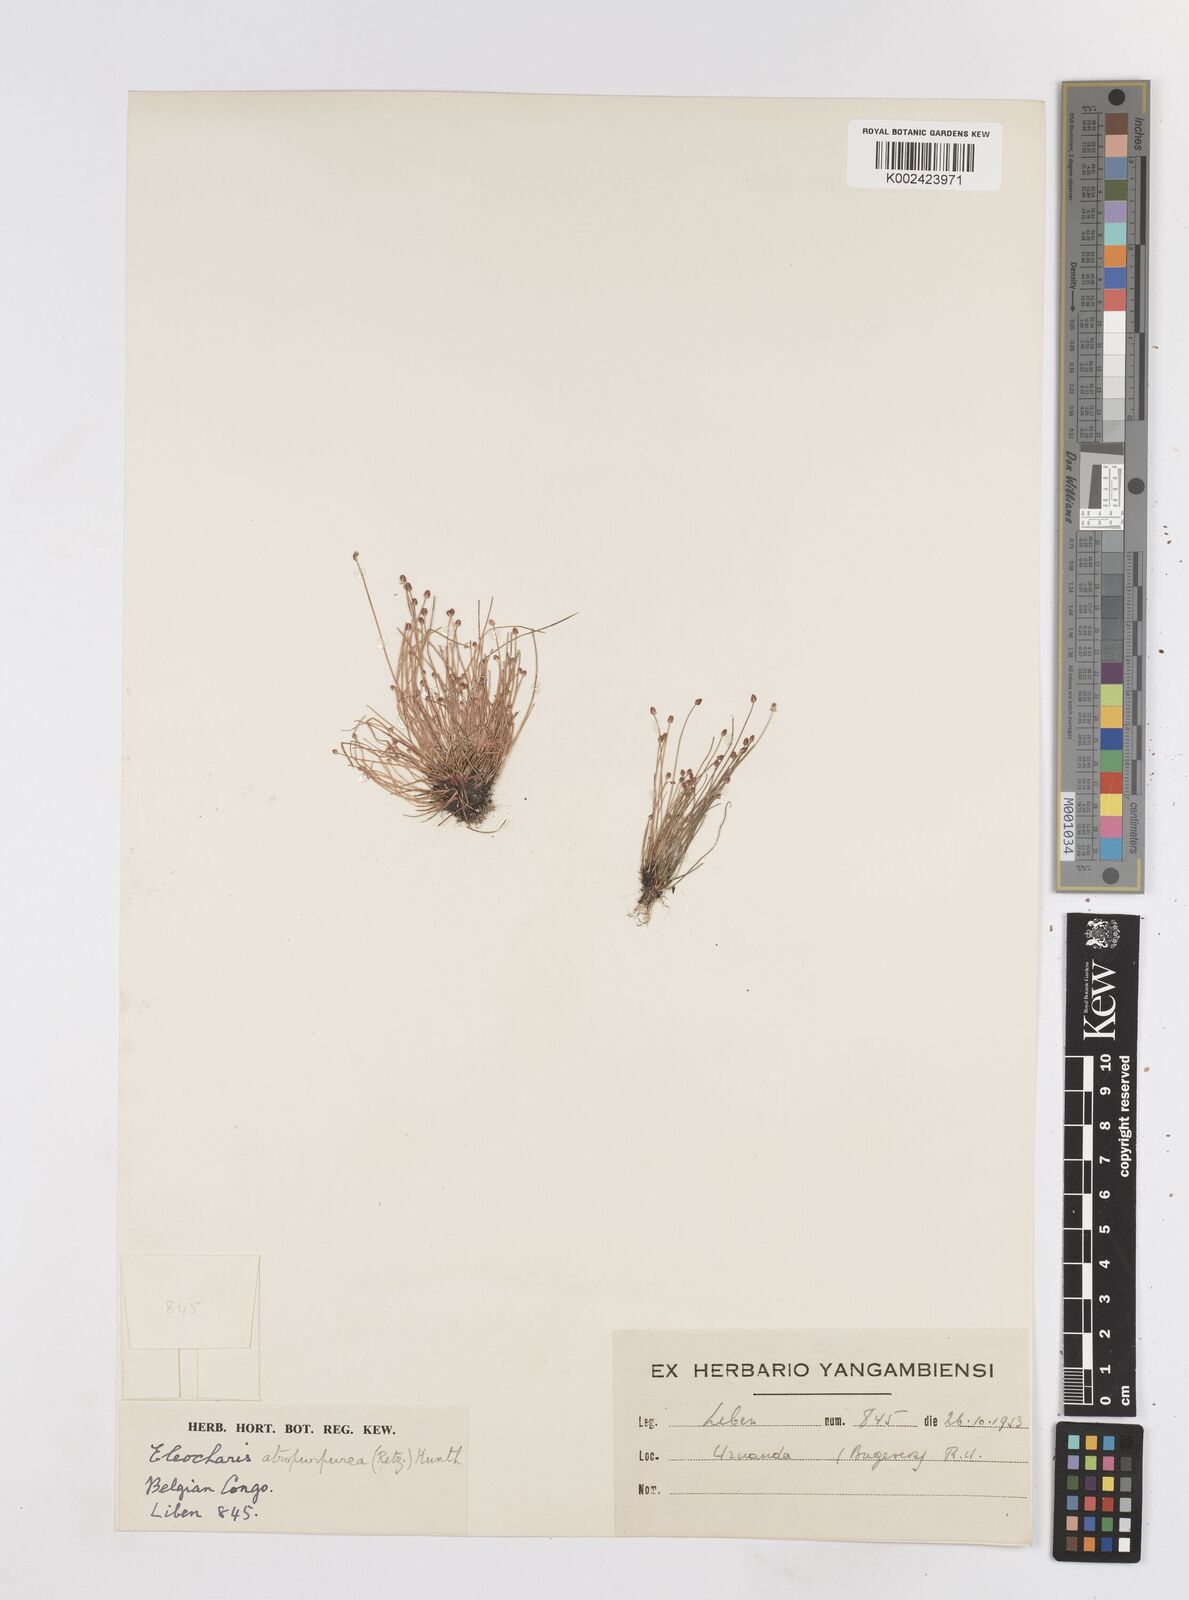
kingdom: Plantae
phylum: Tracheophyta
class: Liliopsida
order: Poales
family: Cyperaceae
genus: Eleocharis
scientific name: Eleocharis atropurpurea
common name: Purple spikerush
